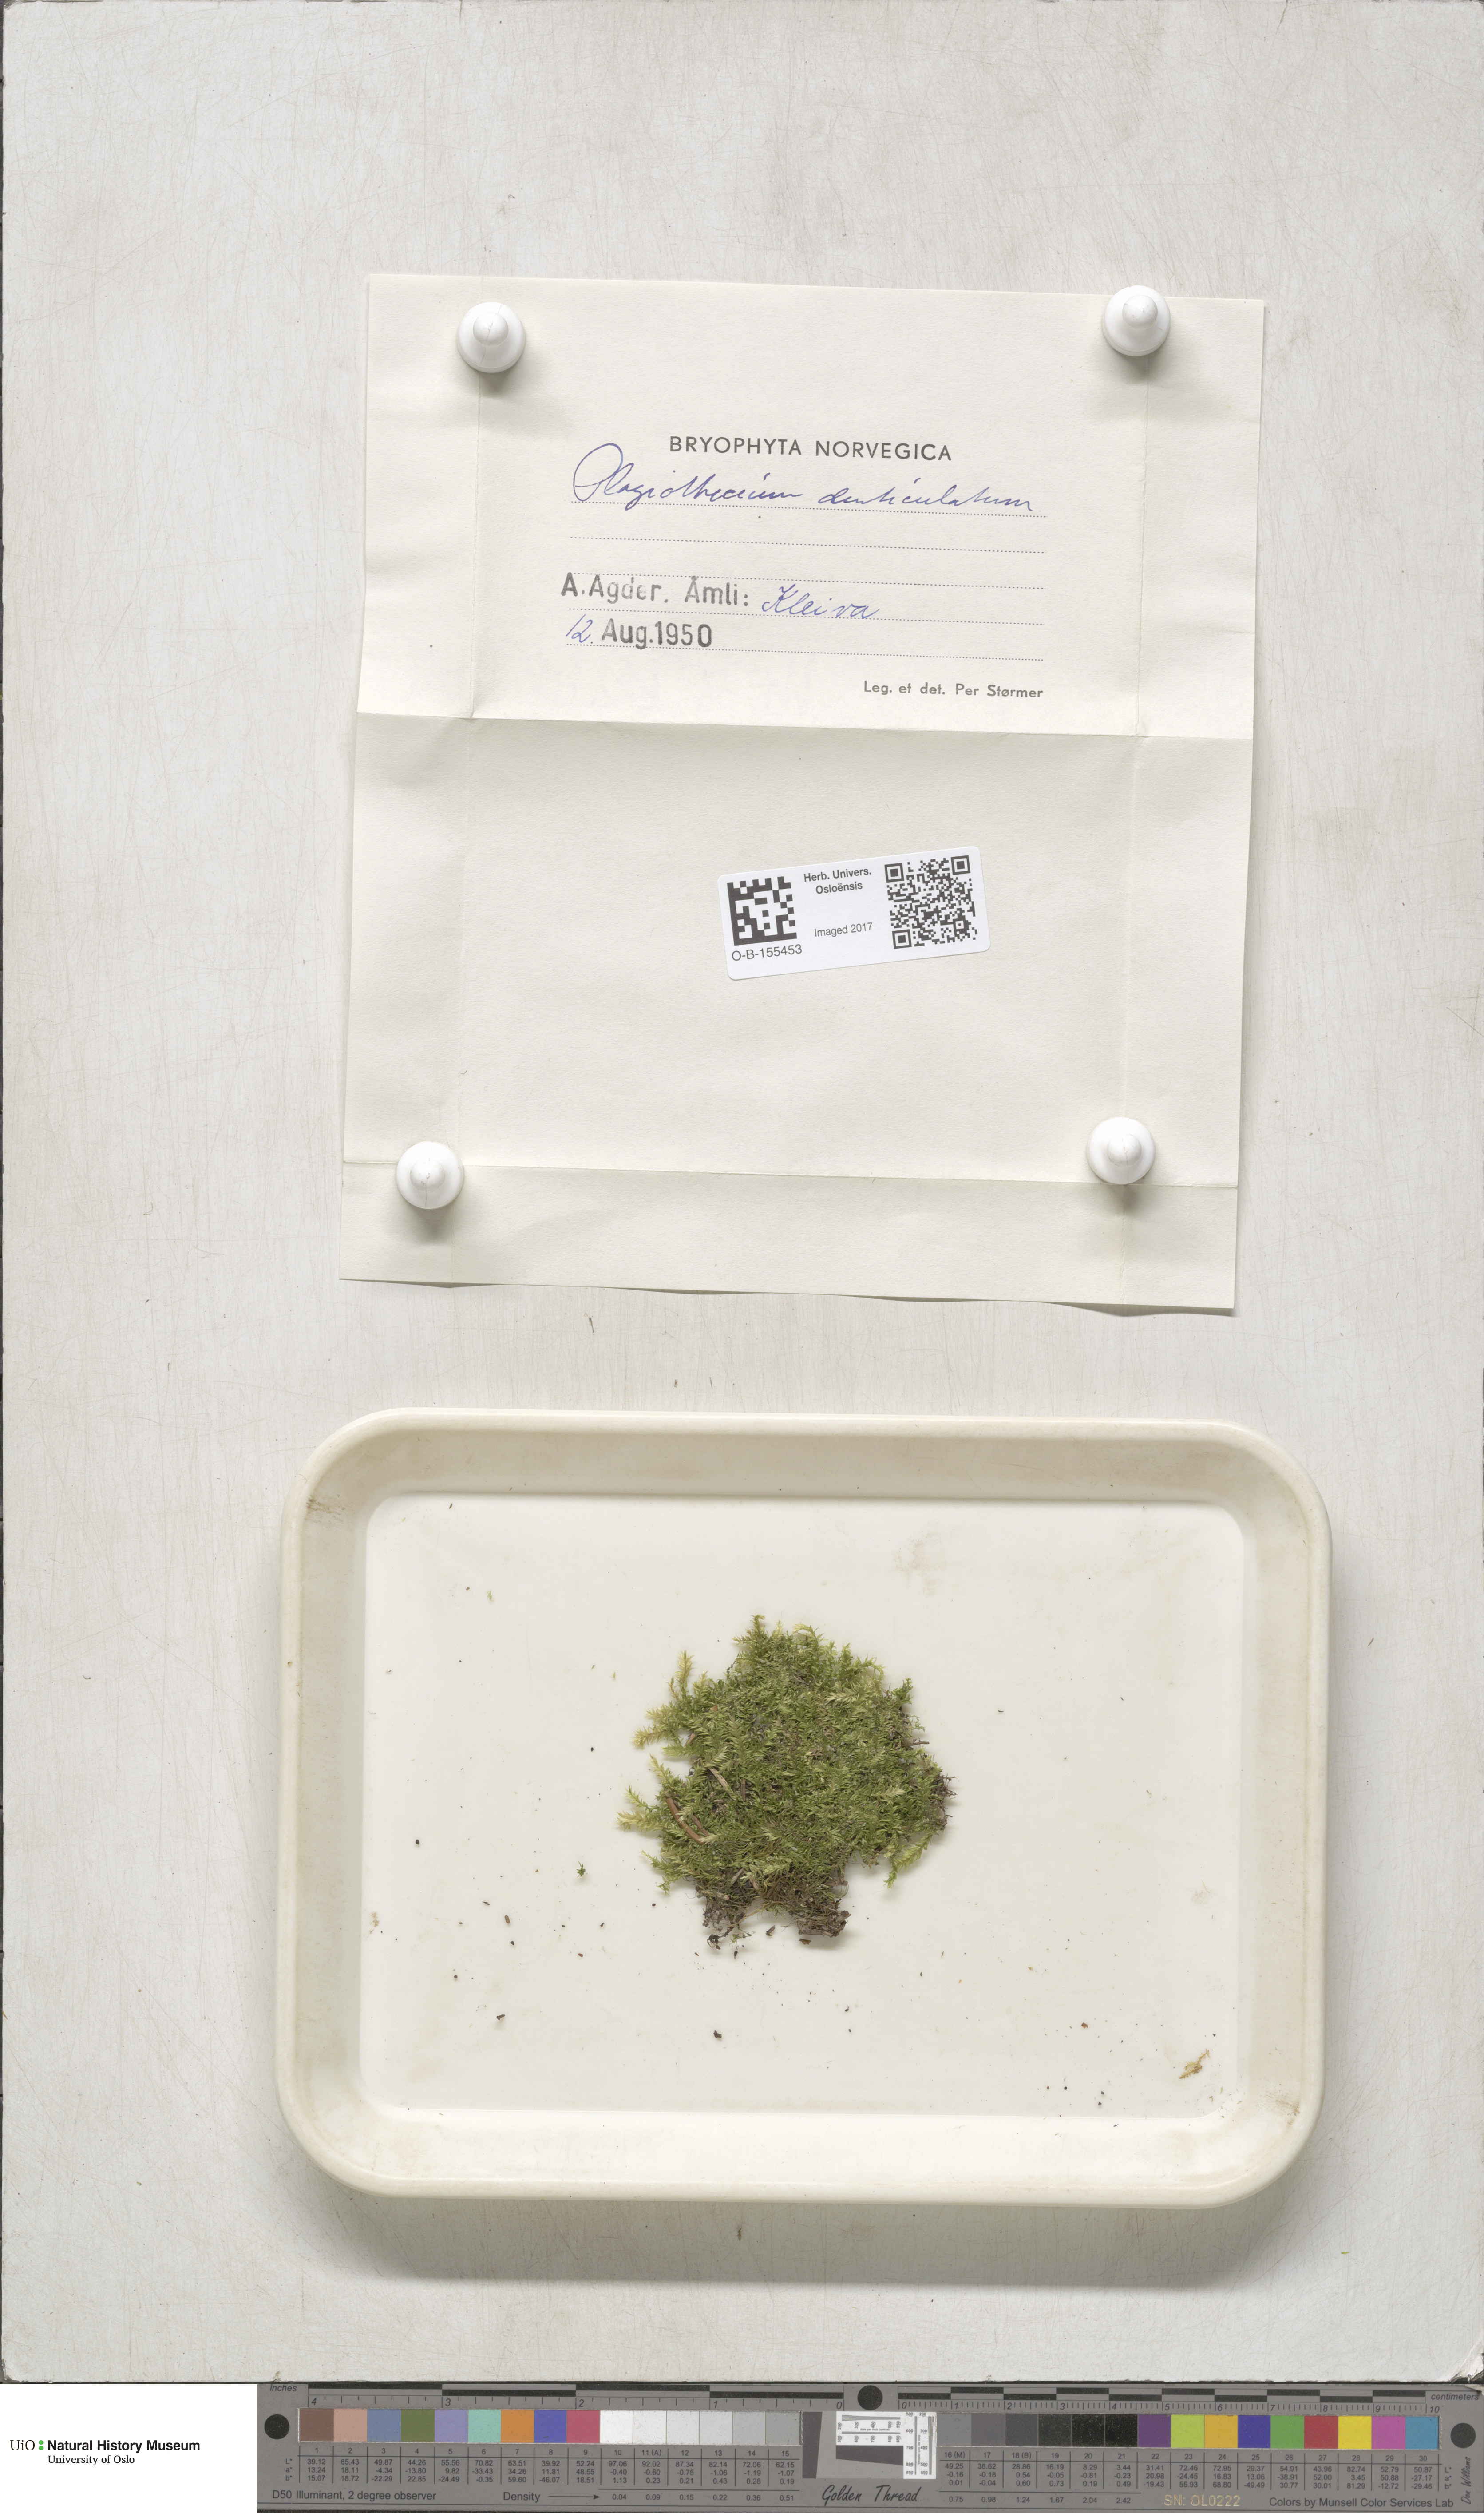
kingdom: Plantae
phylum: Bryophyta
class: Bryopsida
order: Hypnales
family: Plagiotheciaceae
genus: Plagiothecium
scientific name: Plagiothecium denticulatum
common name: Dented silk moss
